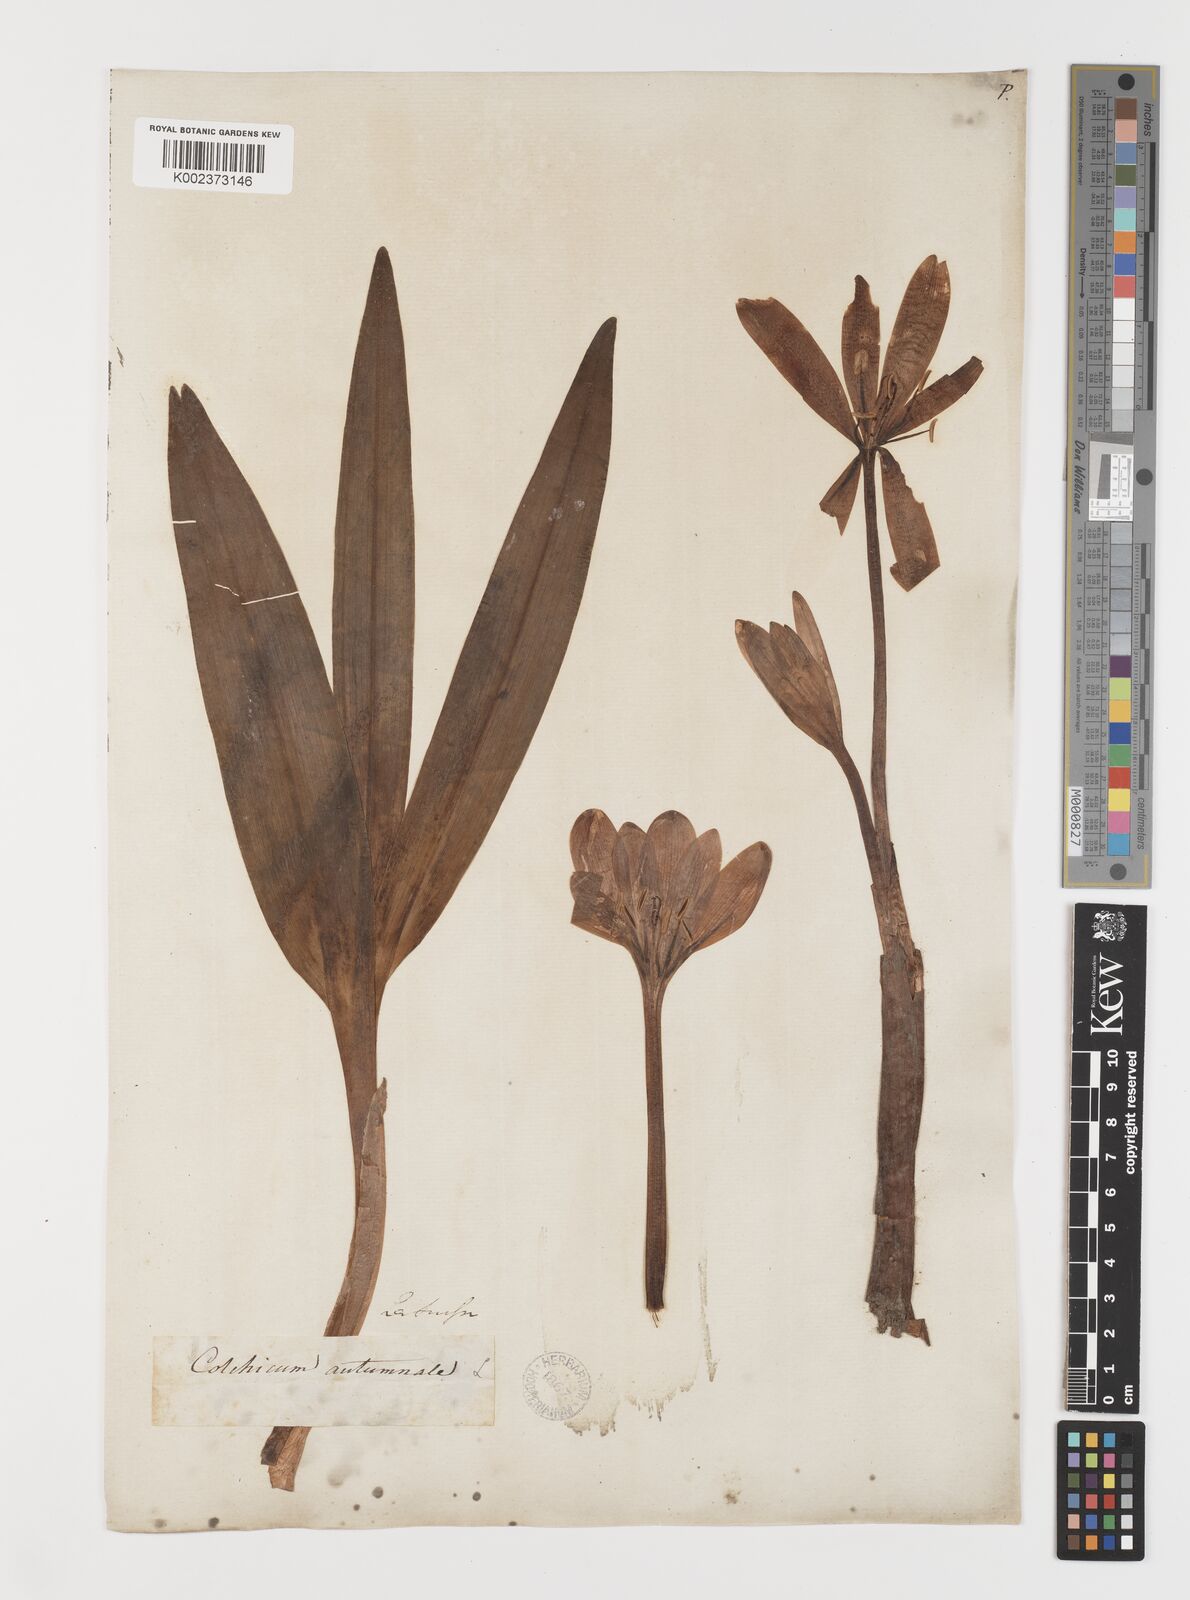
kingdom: Plantae
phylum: Tracheophyta
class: Liliopsida
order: Liliales
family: Colchicaceae
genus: Colchicum
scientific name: Colchicum autumnale
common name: Autumn crocus
